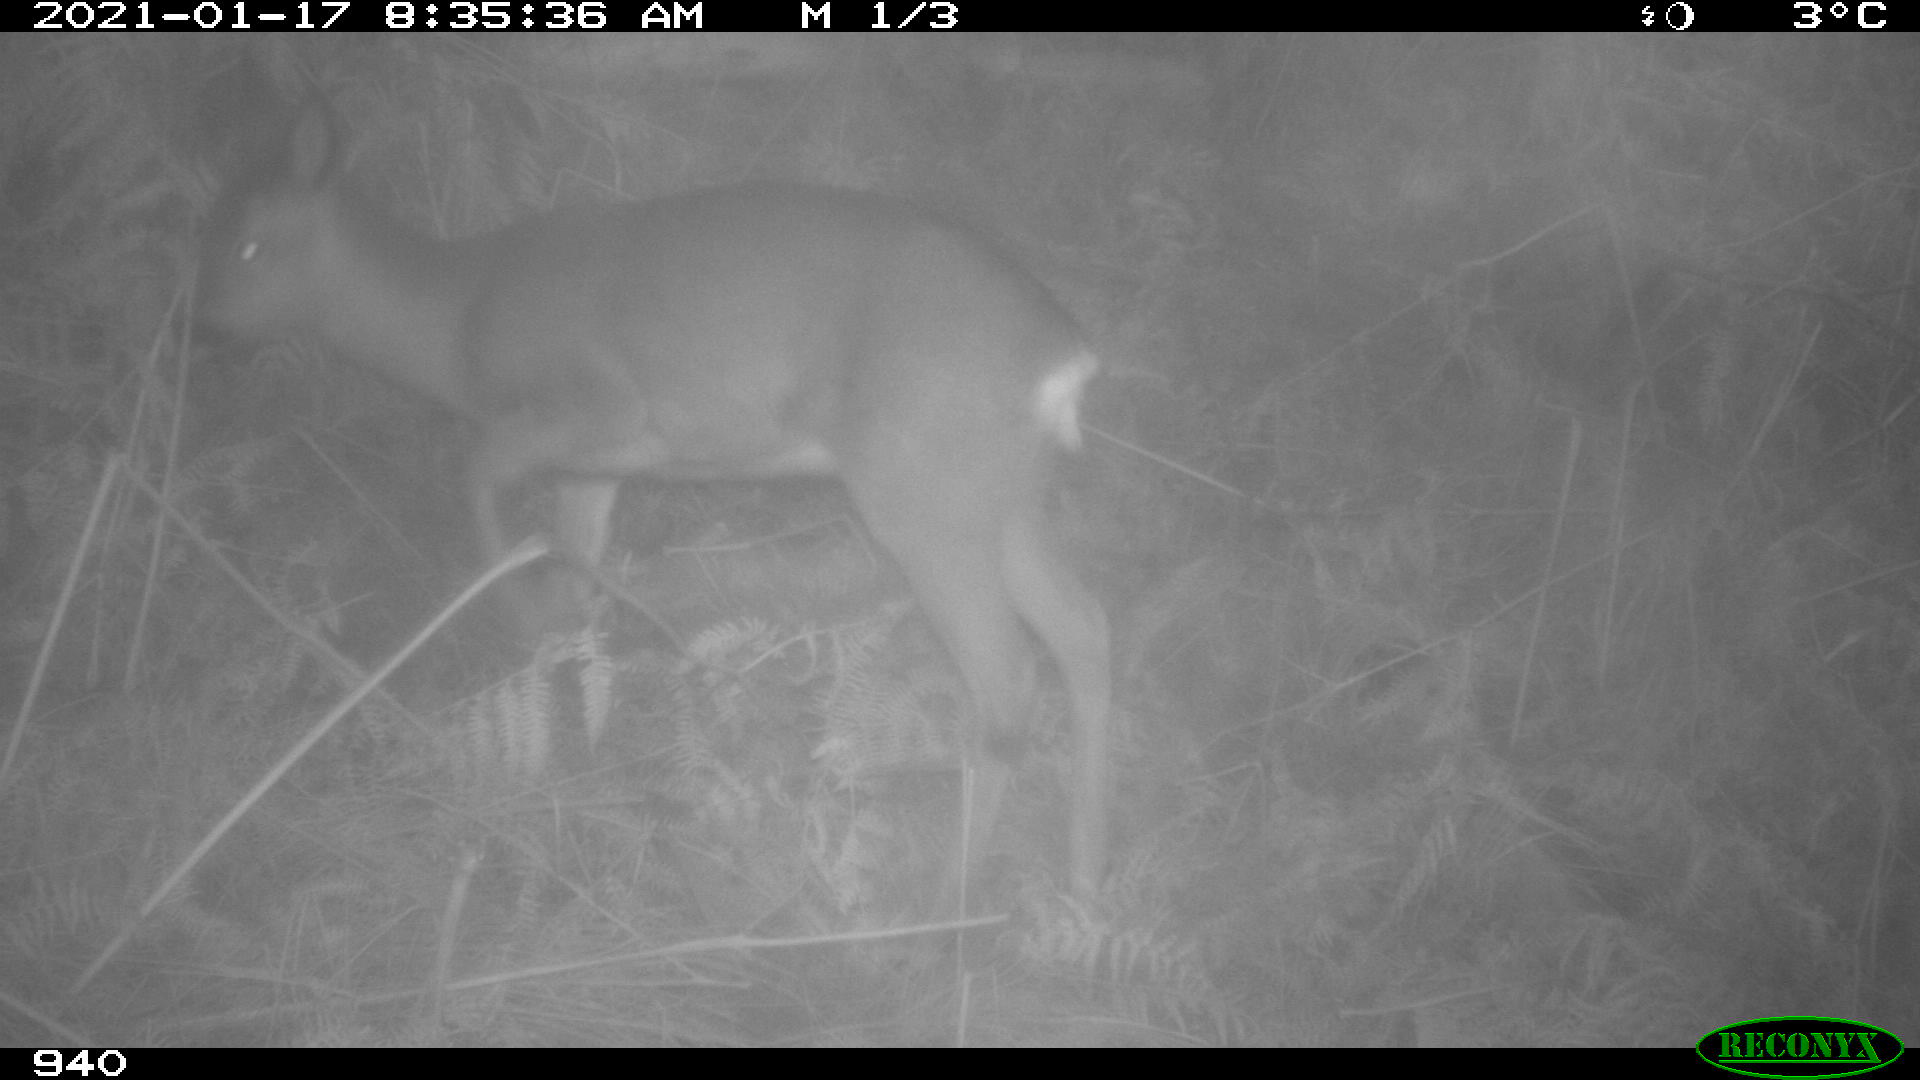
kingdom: Animalia
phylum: Chordata
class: Mammalia
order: Artiodactyla
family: Cervidae
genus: Capreolus
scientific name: Capreolus capreolus
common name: Western roe deer
